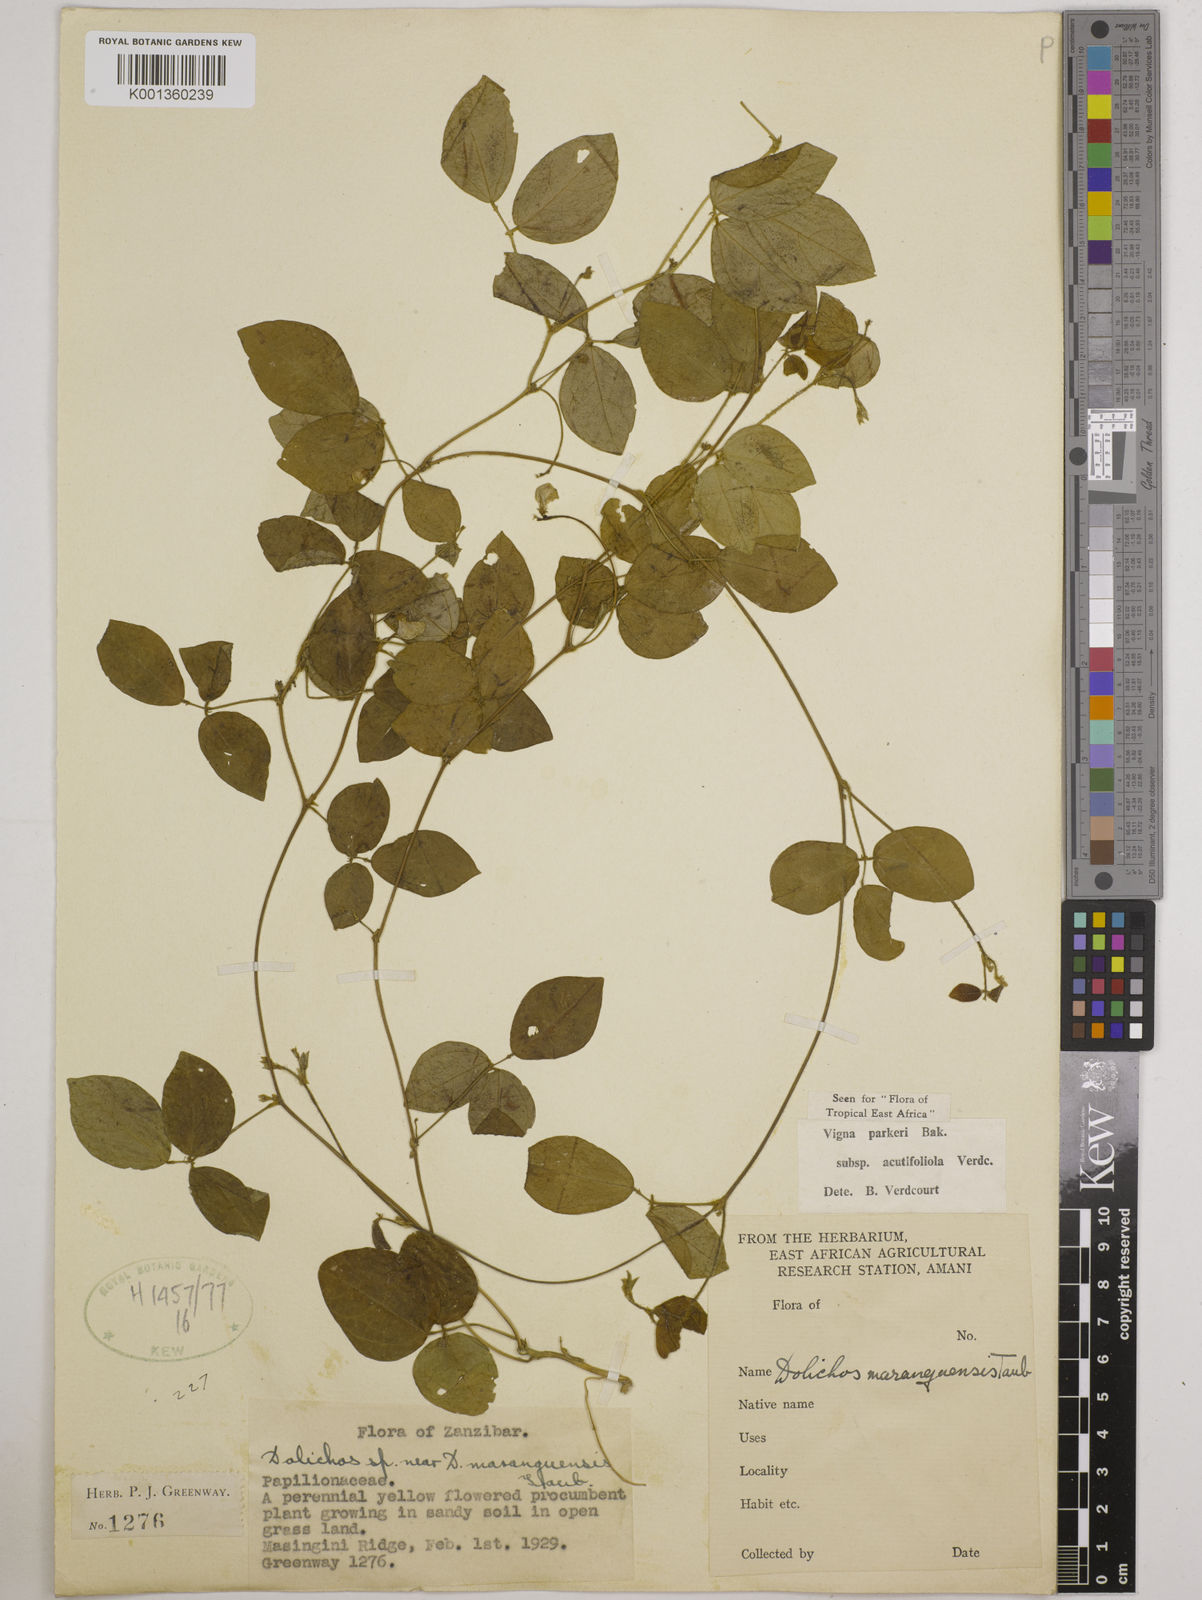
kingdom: Plantae
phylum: Tracheophyta
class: Magnoliopsida
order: Fabales
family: Fabaceae
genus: Vigna
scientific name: Vigna
